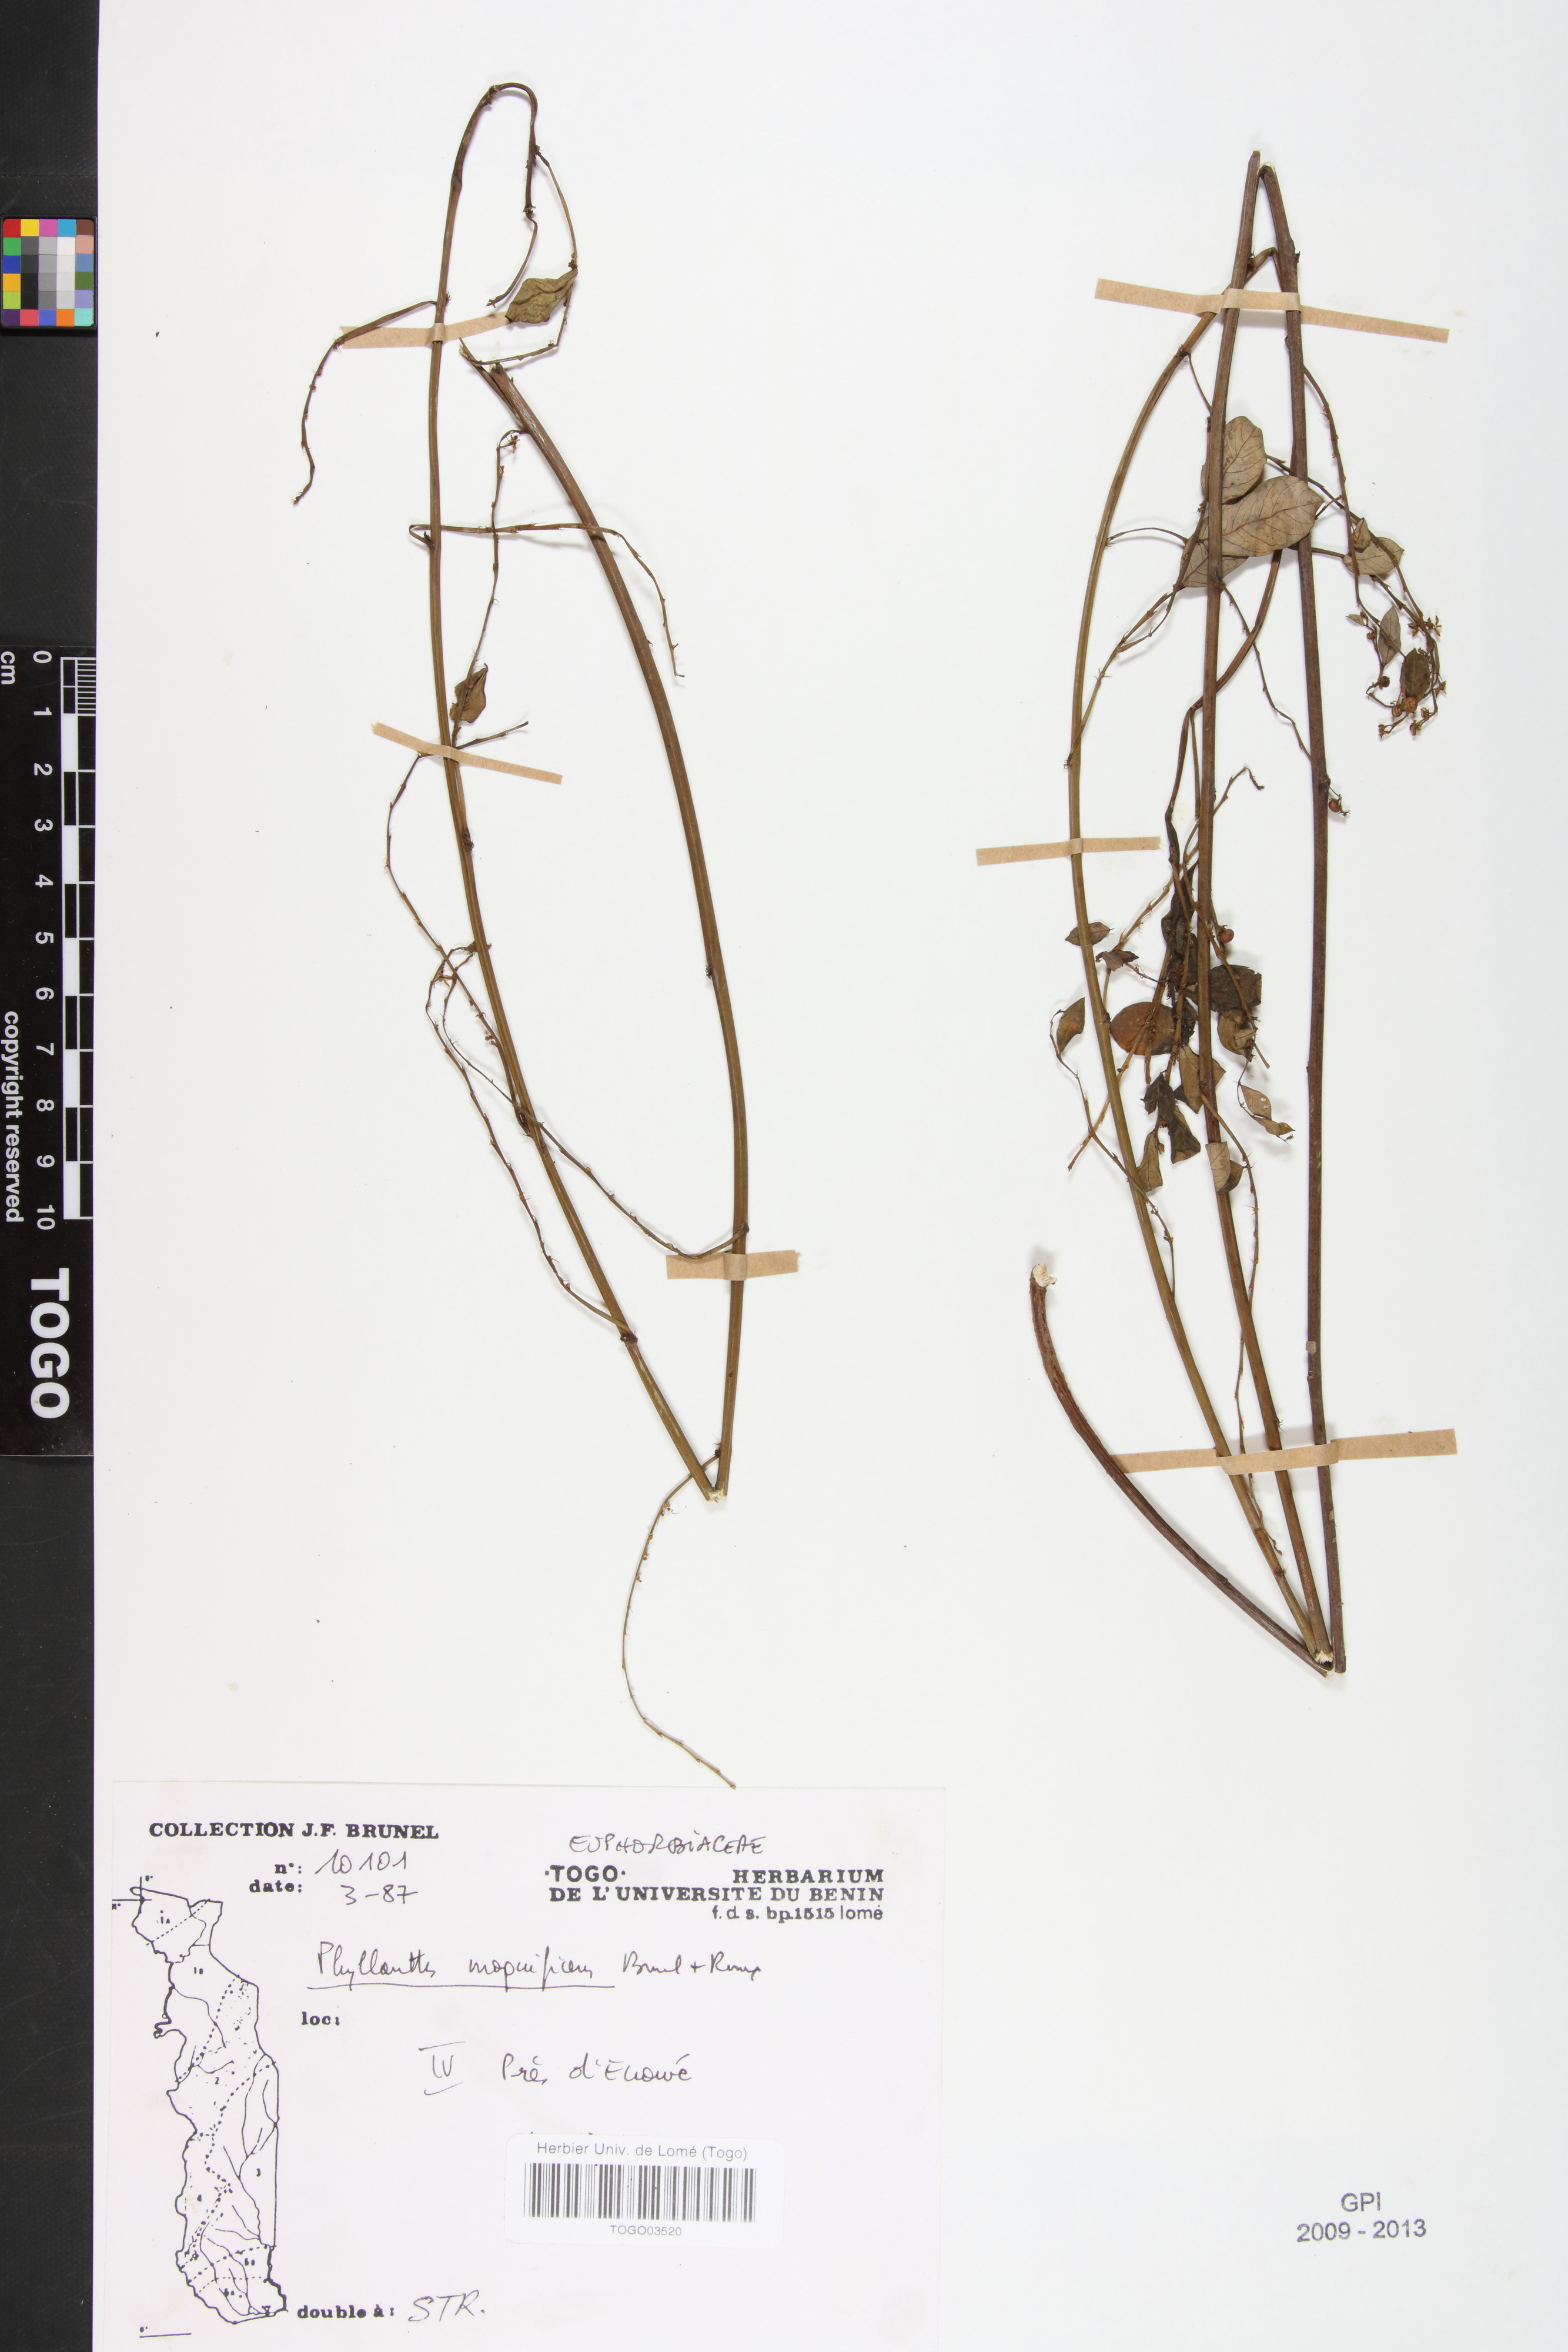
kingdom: Plantae
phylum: Tracheophyta
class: Magnoliopsida
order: Malpighiales
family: Phyllanthaceae
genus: Phyllanthus
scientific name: Phyllanthus magnificens
